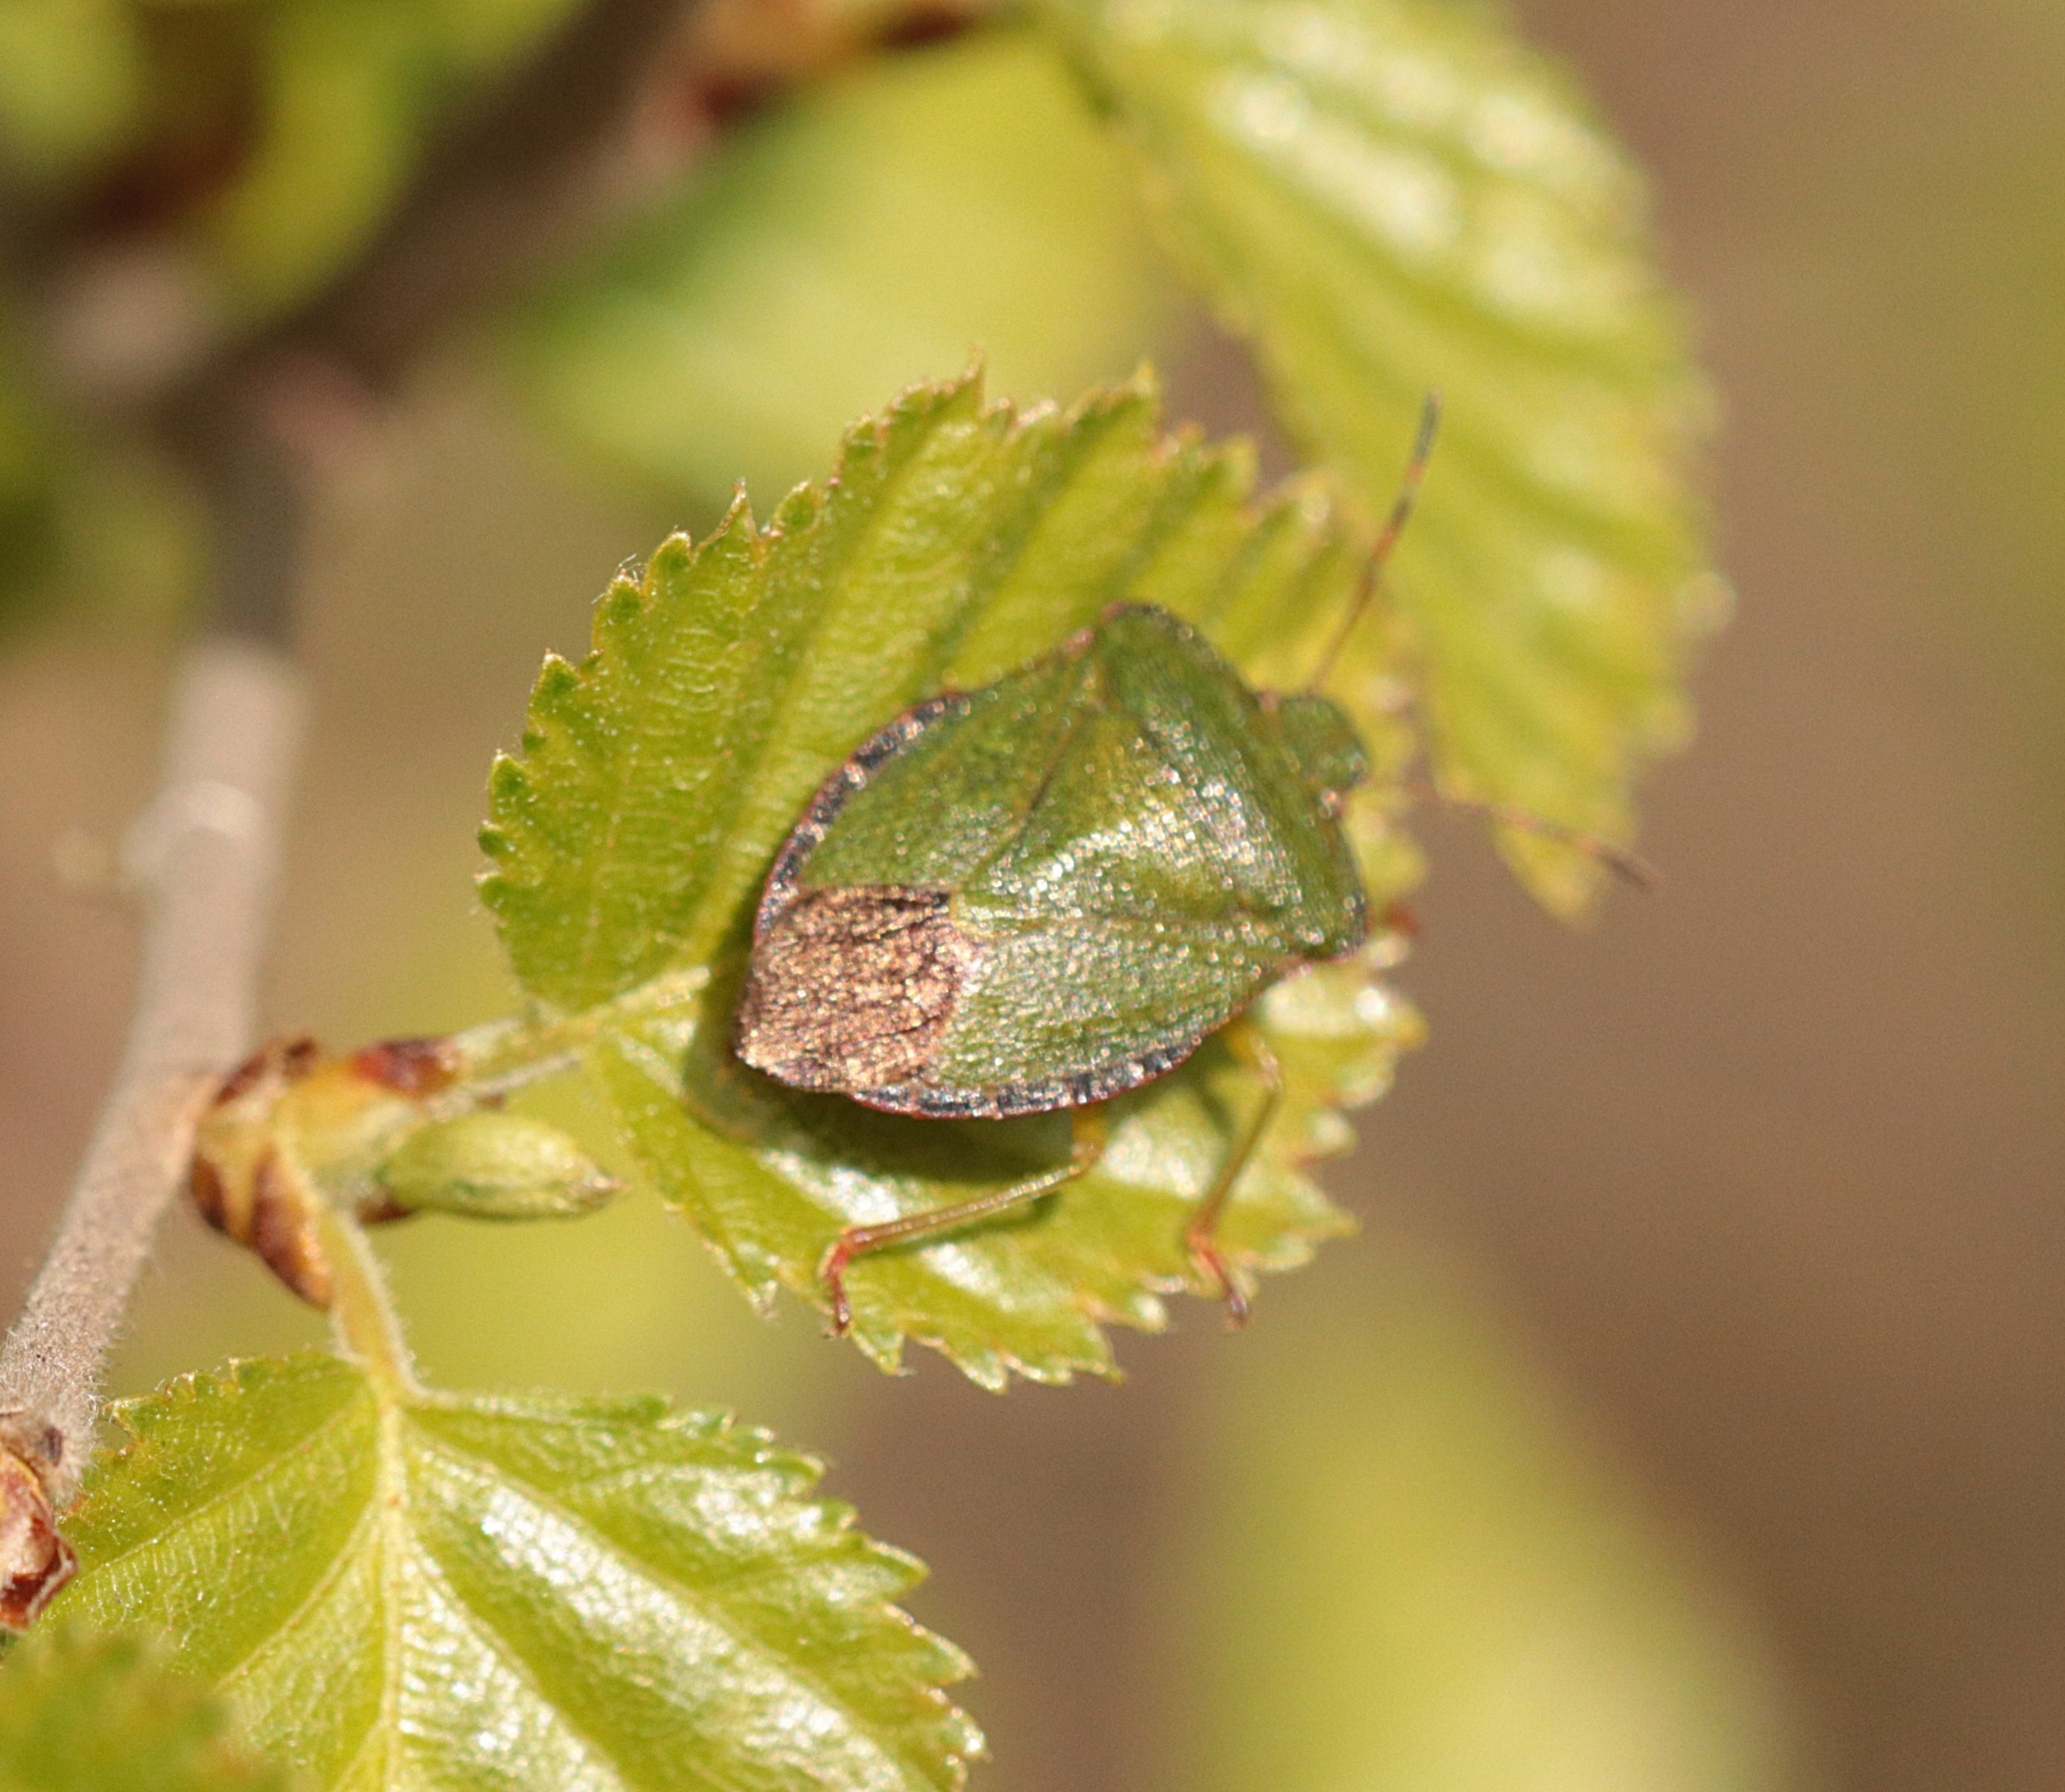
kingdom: Animalia
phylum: Arthropoda
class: Insecta
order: Hemiptera
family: Pentatomidae
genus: Palomena
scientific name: Palomena prasina
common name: Grøn bredtæge
